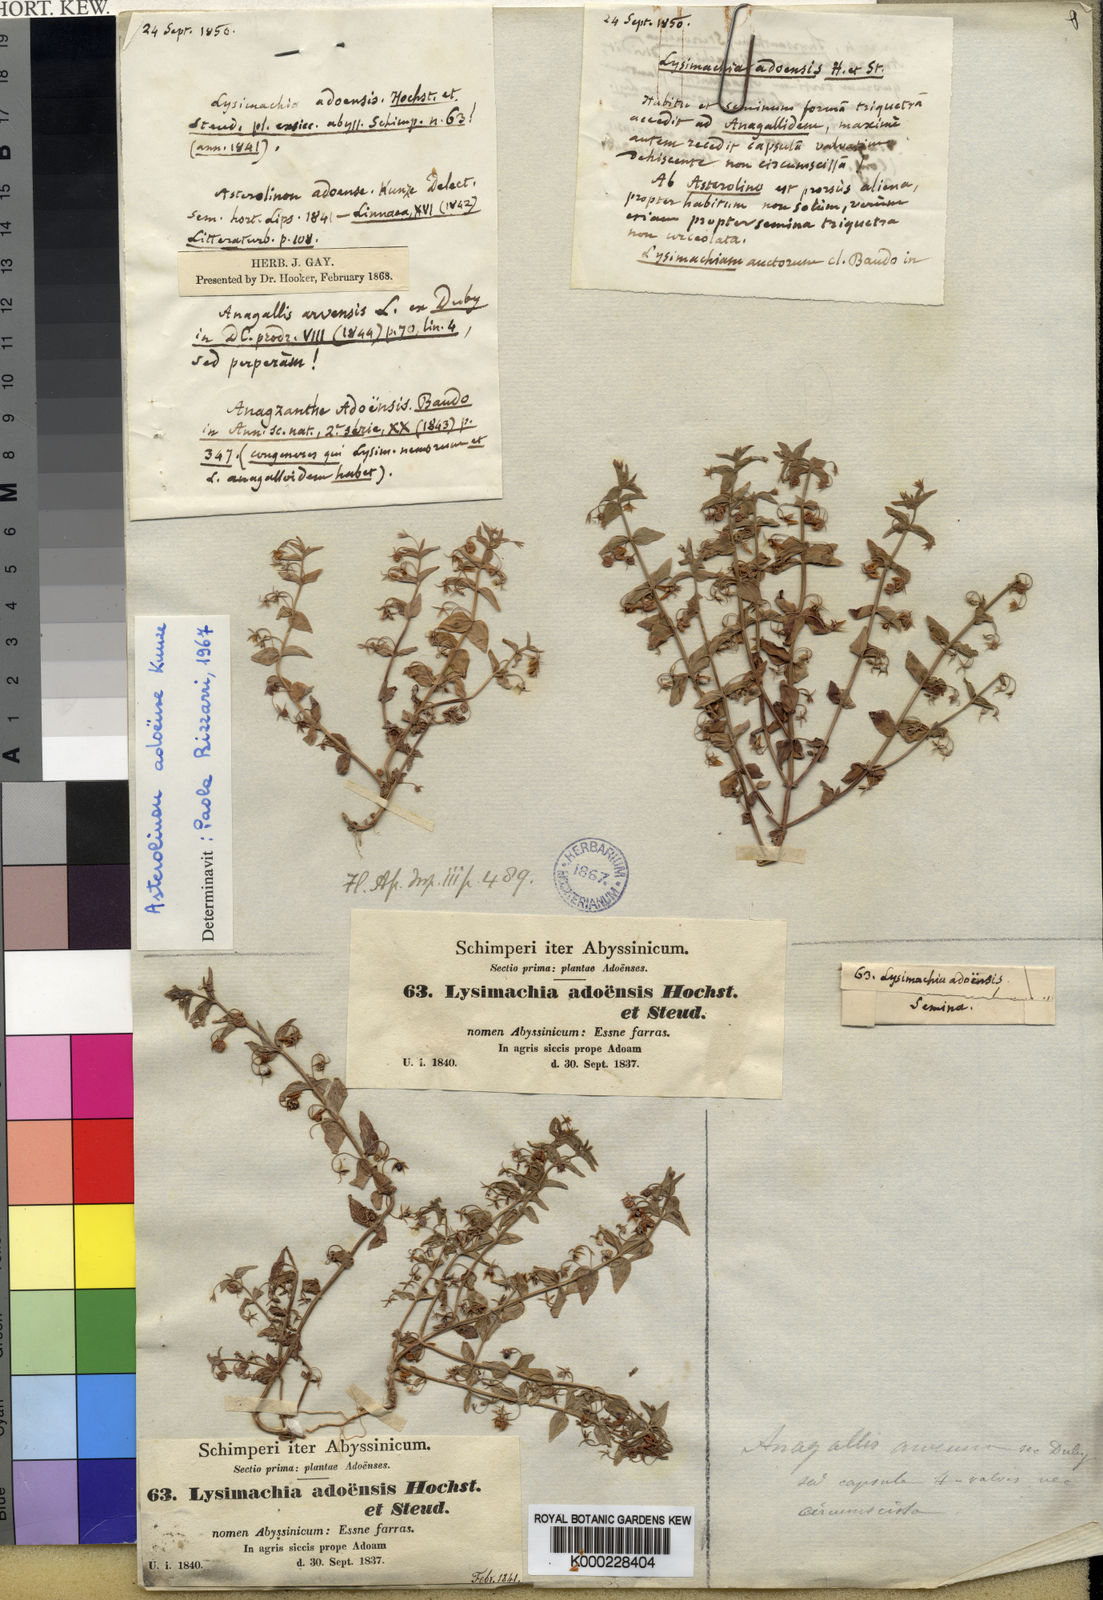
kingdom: Plantae
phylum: Tracheophyta
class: Magnoliopsida
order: Ericales
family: Primulaceae
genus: Lysimachia
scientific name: Lysimachia adoensis
